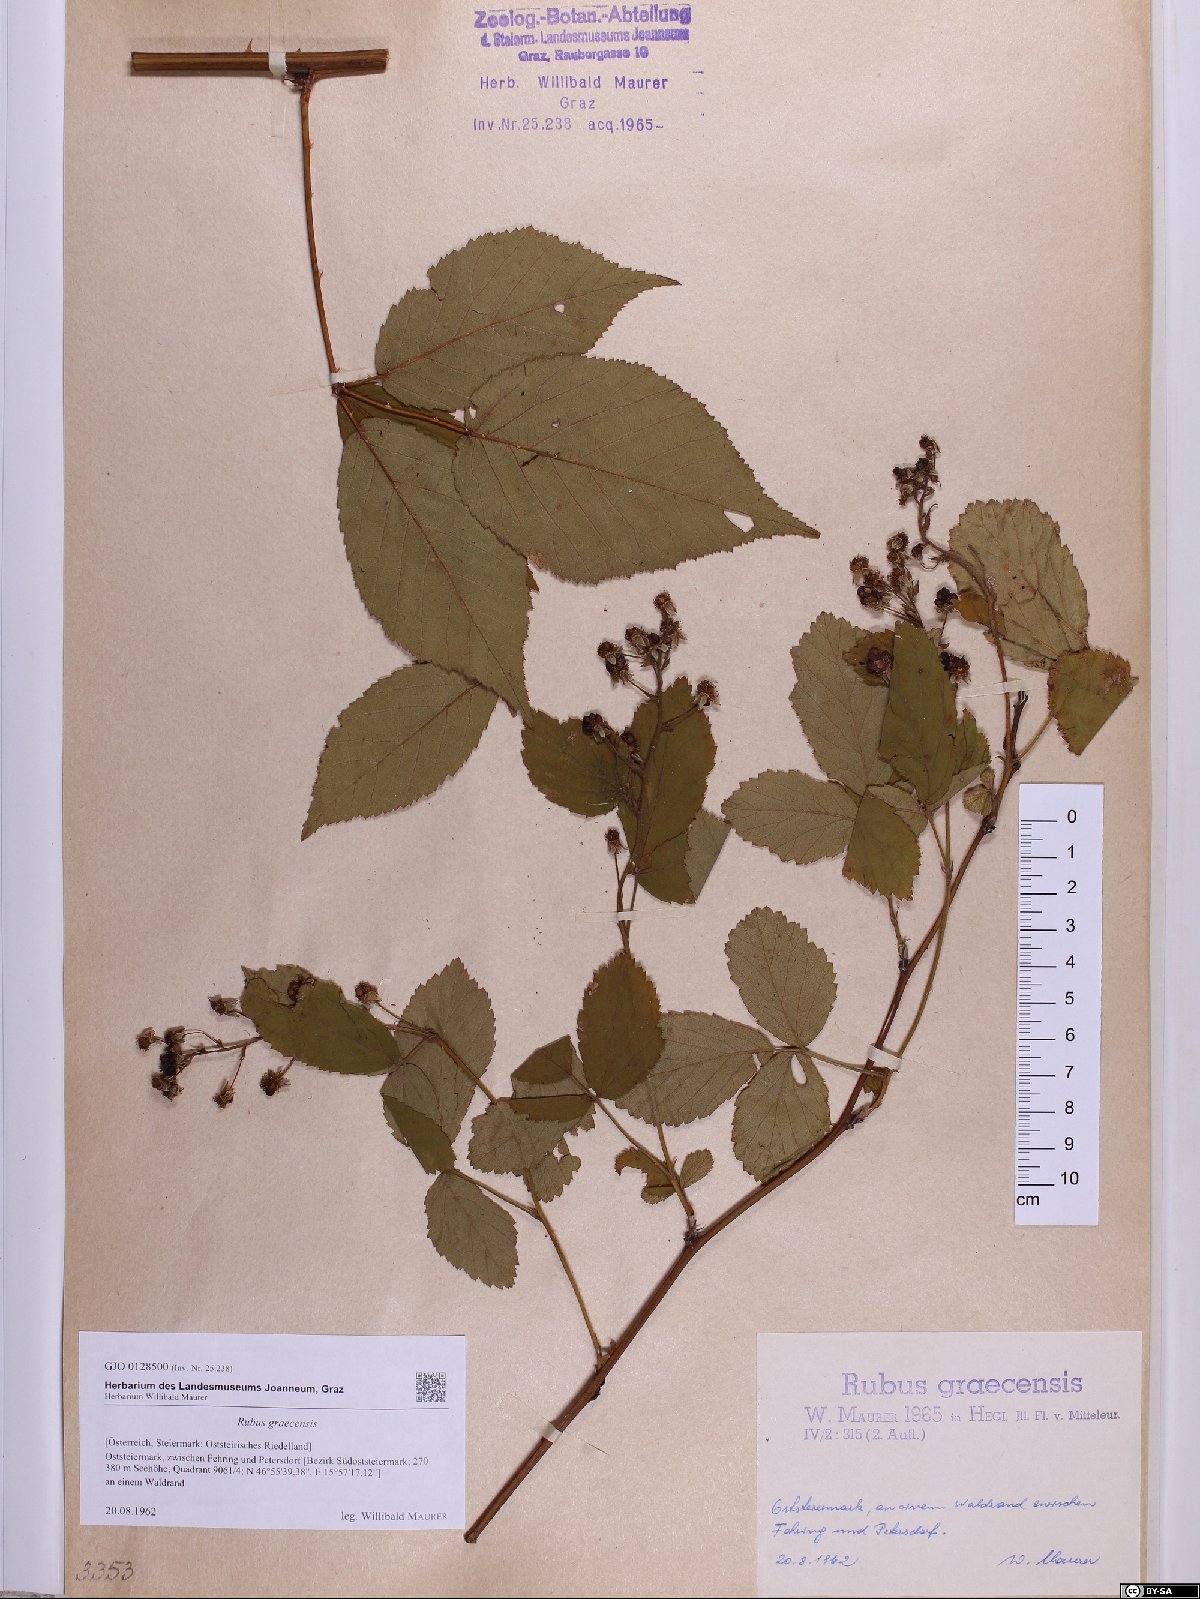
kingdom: Plantae
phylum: Tracheophyta
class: Magnoliopsida
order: Rosales
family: Rosaceae
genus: Rubus
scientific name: Rubus graecensis
